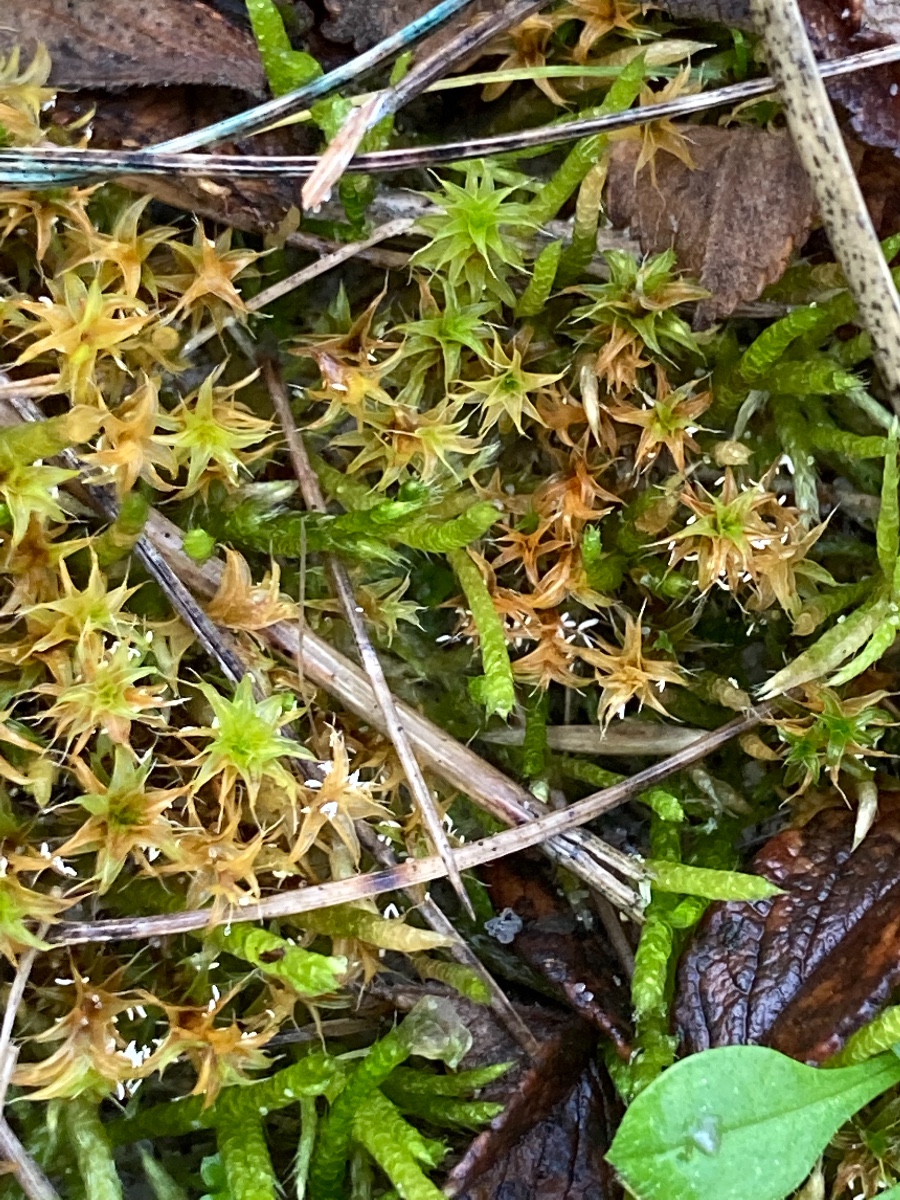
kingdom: Fungi
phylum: Basidiomycota
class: Agaricomycetes
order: Hymenochaetales
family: Rickenellaceae
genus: Bryopistillaria
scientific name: Bryopistillaria sagittiformis
